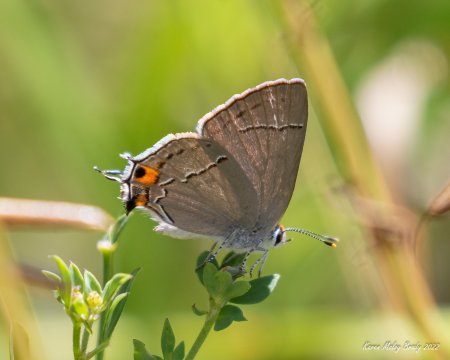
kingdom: Animalia
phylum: Arthropoda
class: Insecta
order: Lepidoptera
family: Lycaenidae
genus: Strymon
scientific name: Strymon melinus
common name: Gray Hairstreak
